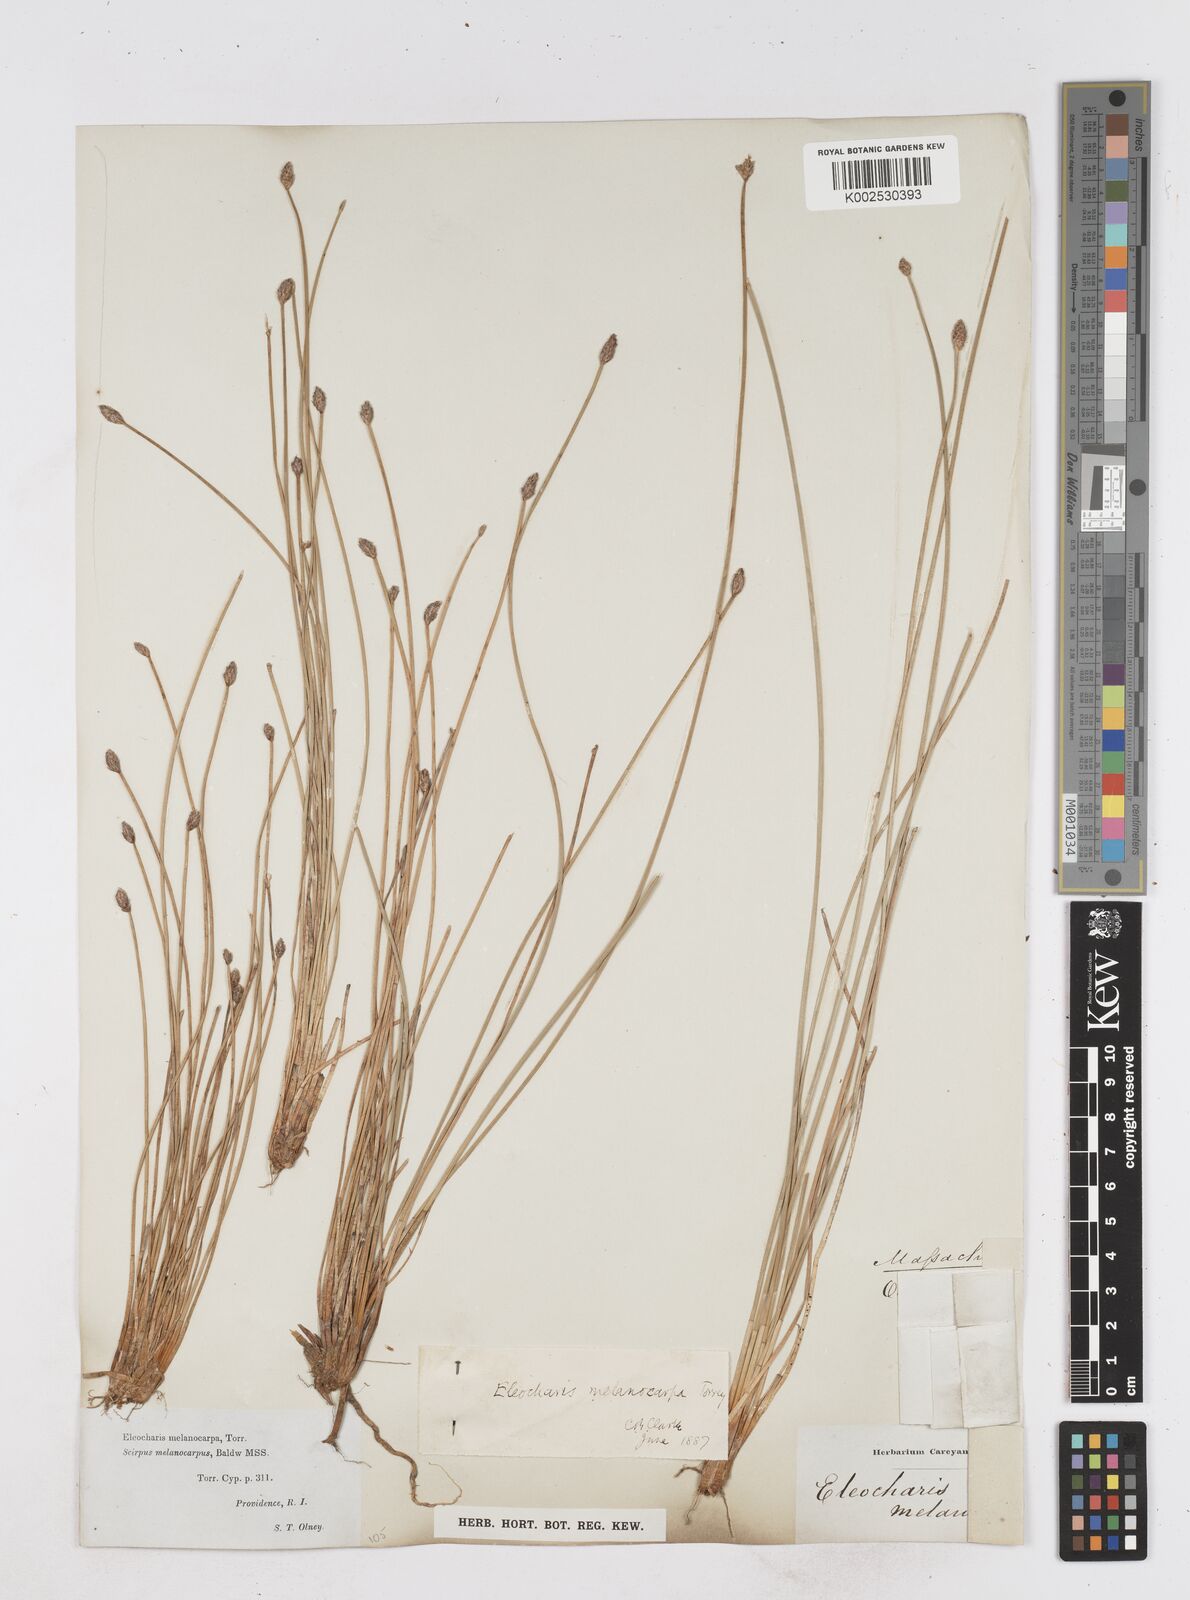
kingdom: Plantae
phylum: Tracheophyta
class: Liliopsida
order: Poales
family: Cyperaceae
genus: Eleocharis
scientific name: Eleocharis melanocarpa
